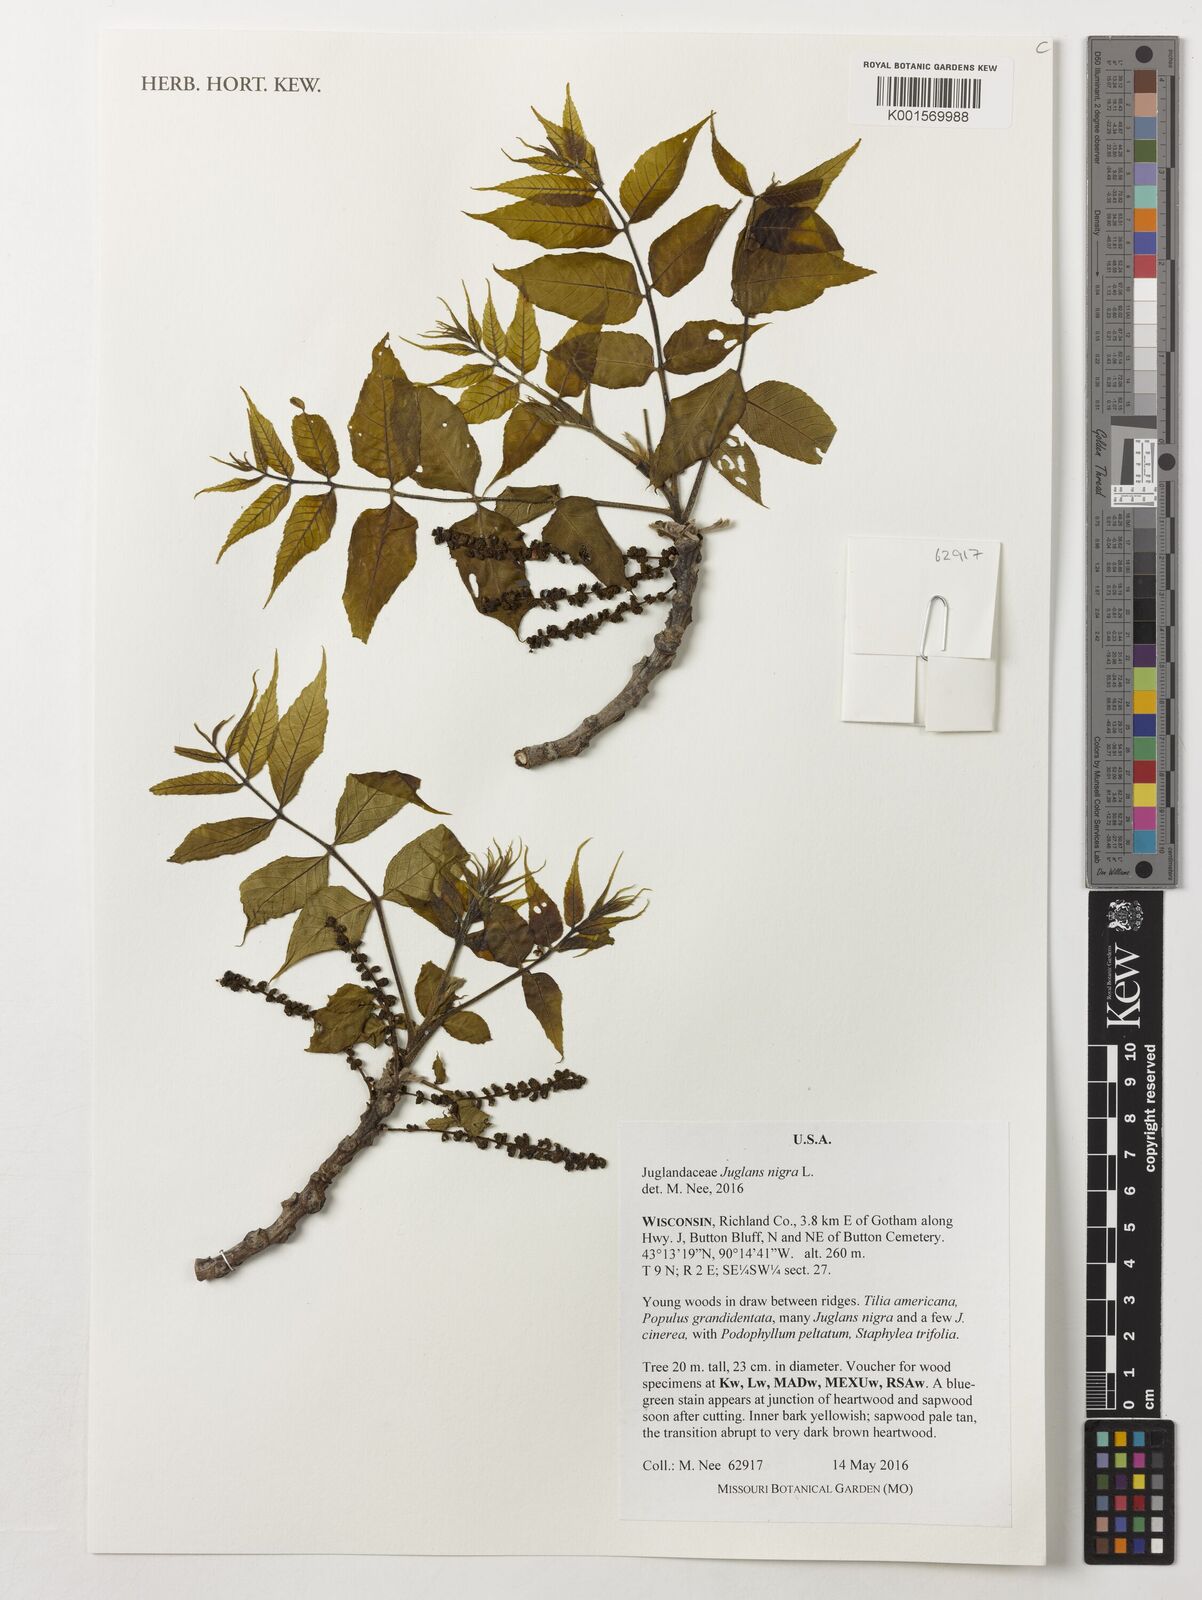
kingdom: Plantae
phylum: Tracheophyta
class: Magnoliopsida
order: Fagales
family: Juglandaceae
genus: Juglans
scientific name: Juglans nigra
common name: Black walnut
